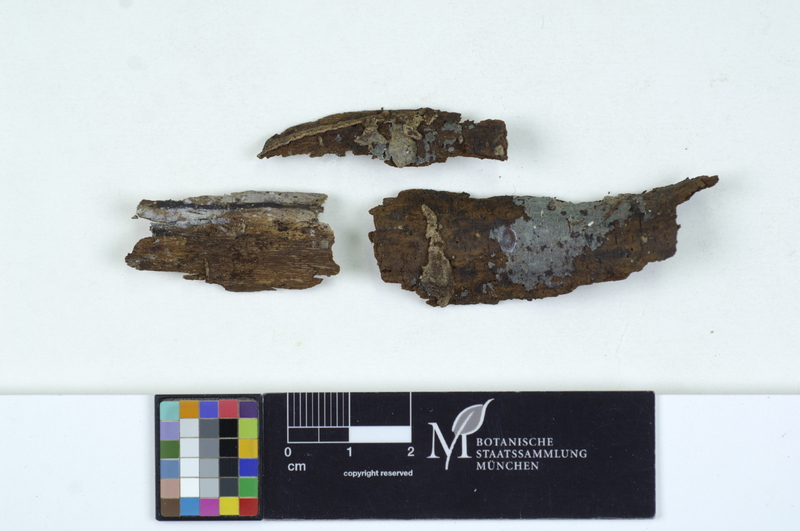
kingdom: Fungi
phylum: Basidiomycota
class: Agaricomycetes
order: Sebacinales
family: Sebacinaceae
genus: Sebacina
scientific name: Sebacina epigaea
